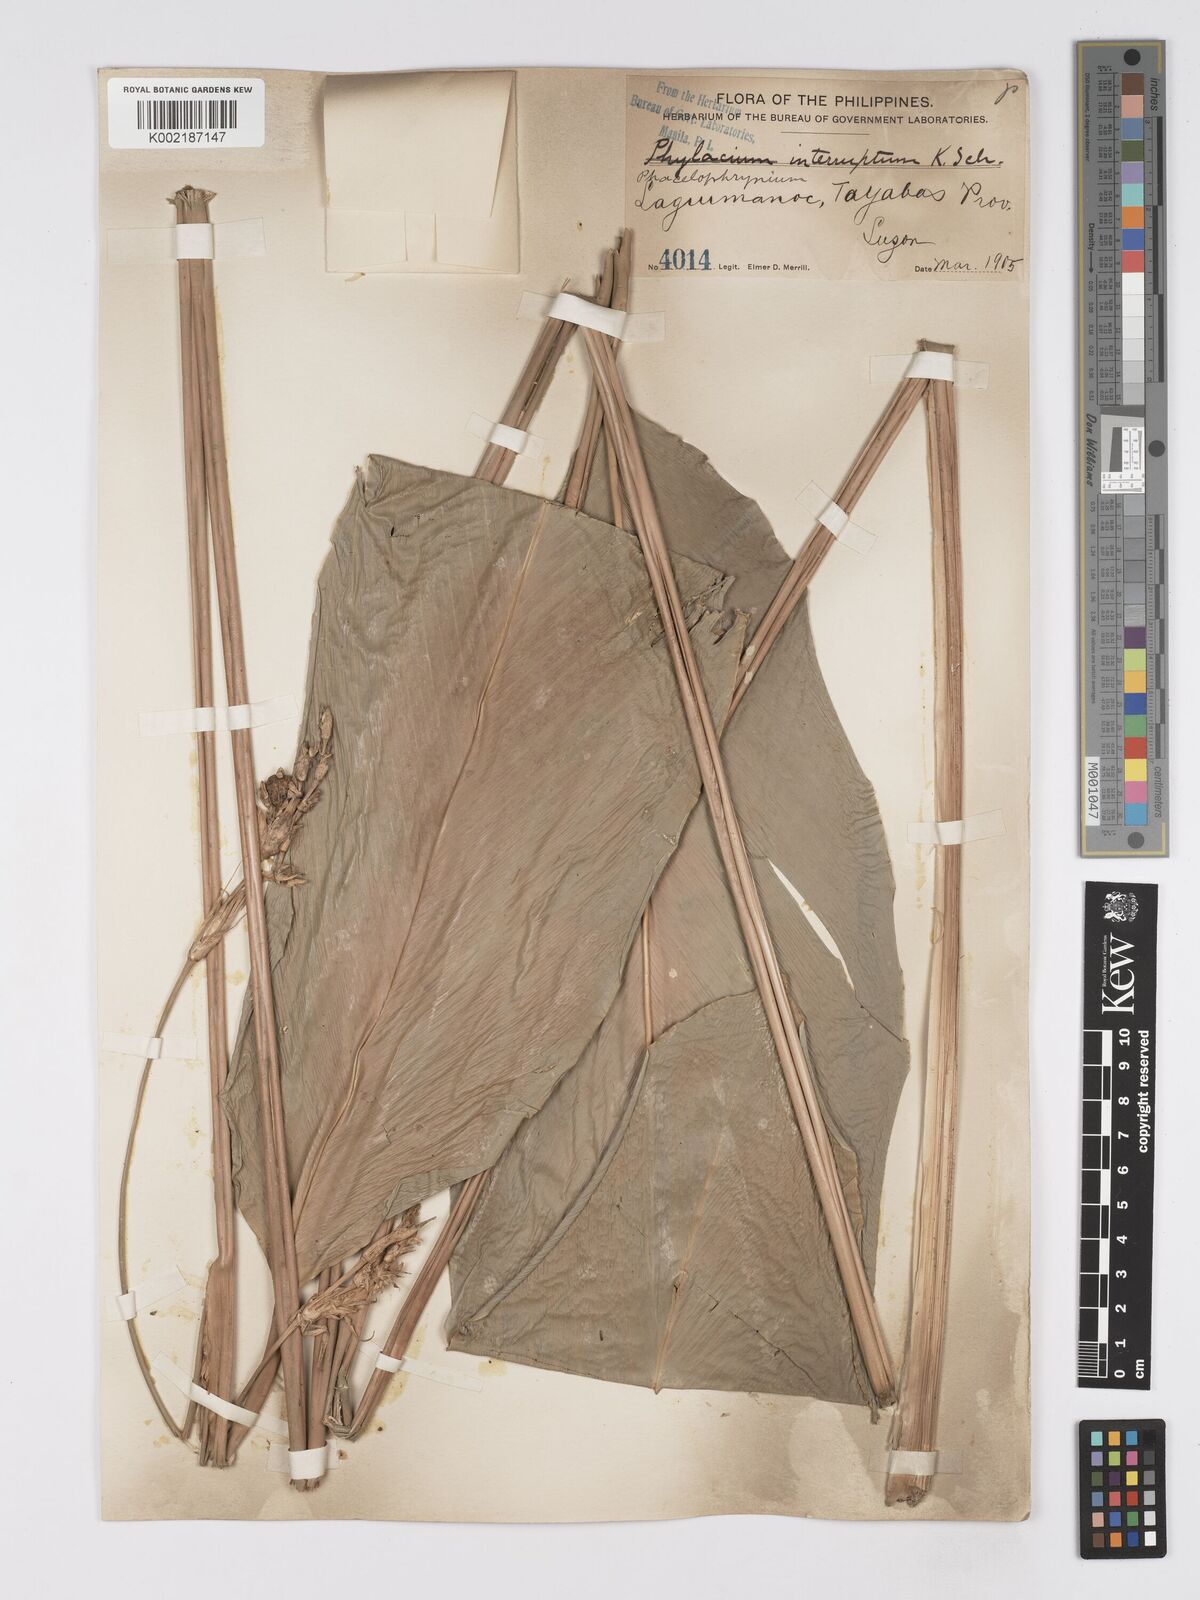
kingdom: Plantae
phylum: Tracheophyta
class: Liliopsida
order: Zingiberales
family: Marantaceae
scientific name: Marantaceae
